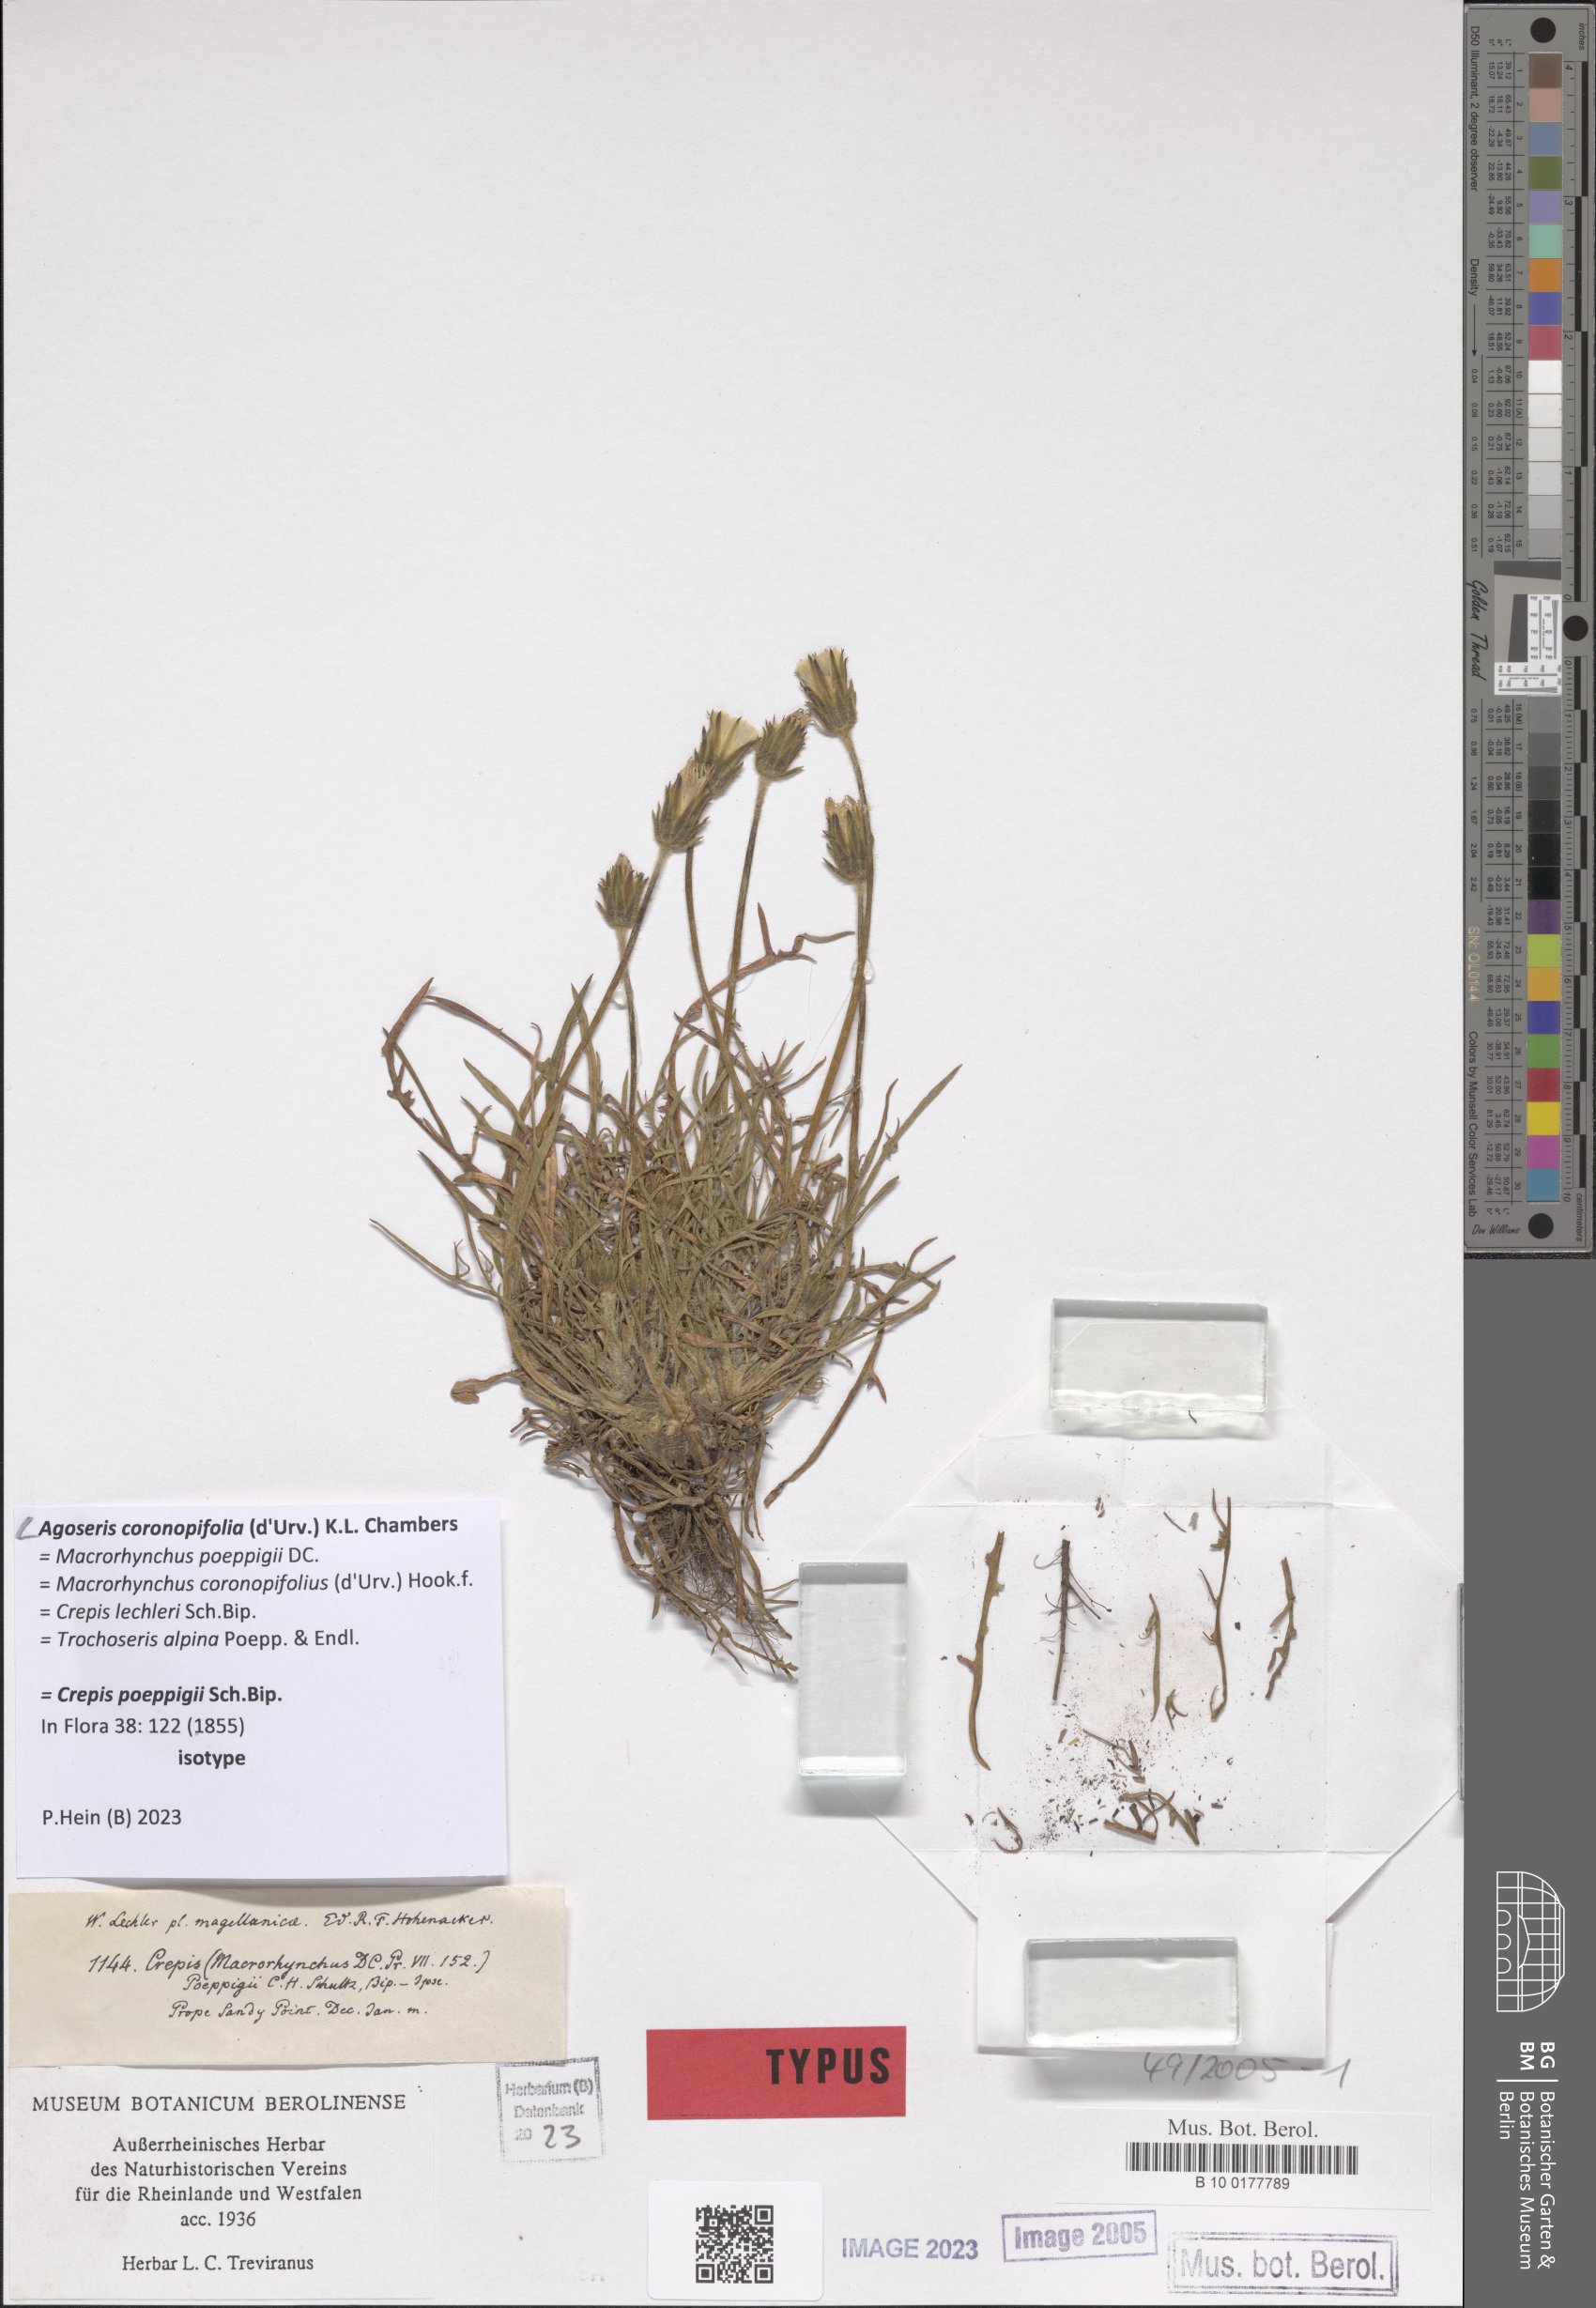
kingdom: Plantae
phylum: Tracheophyta
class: Magnoliopsida
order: Asterales
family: Asteraceae
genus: Agoseris
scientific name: Agoseris coronopifolia
